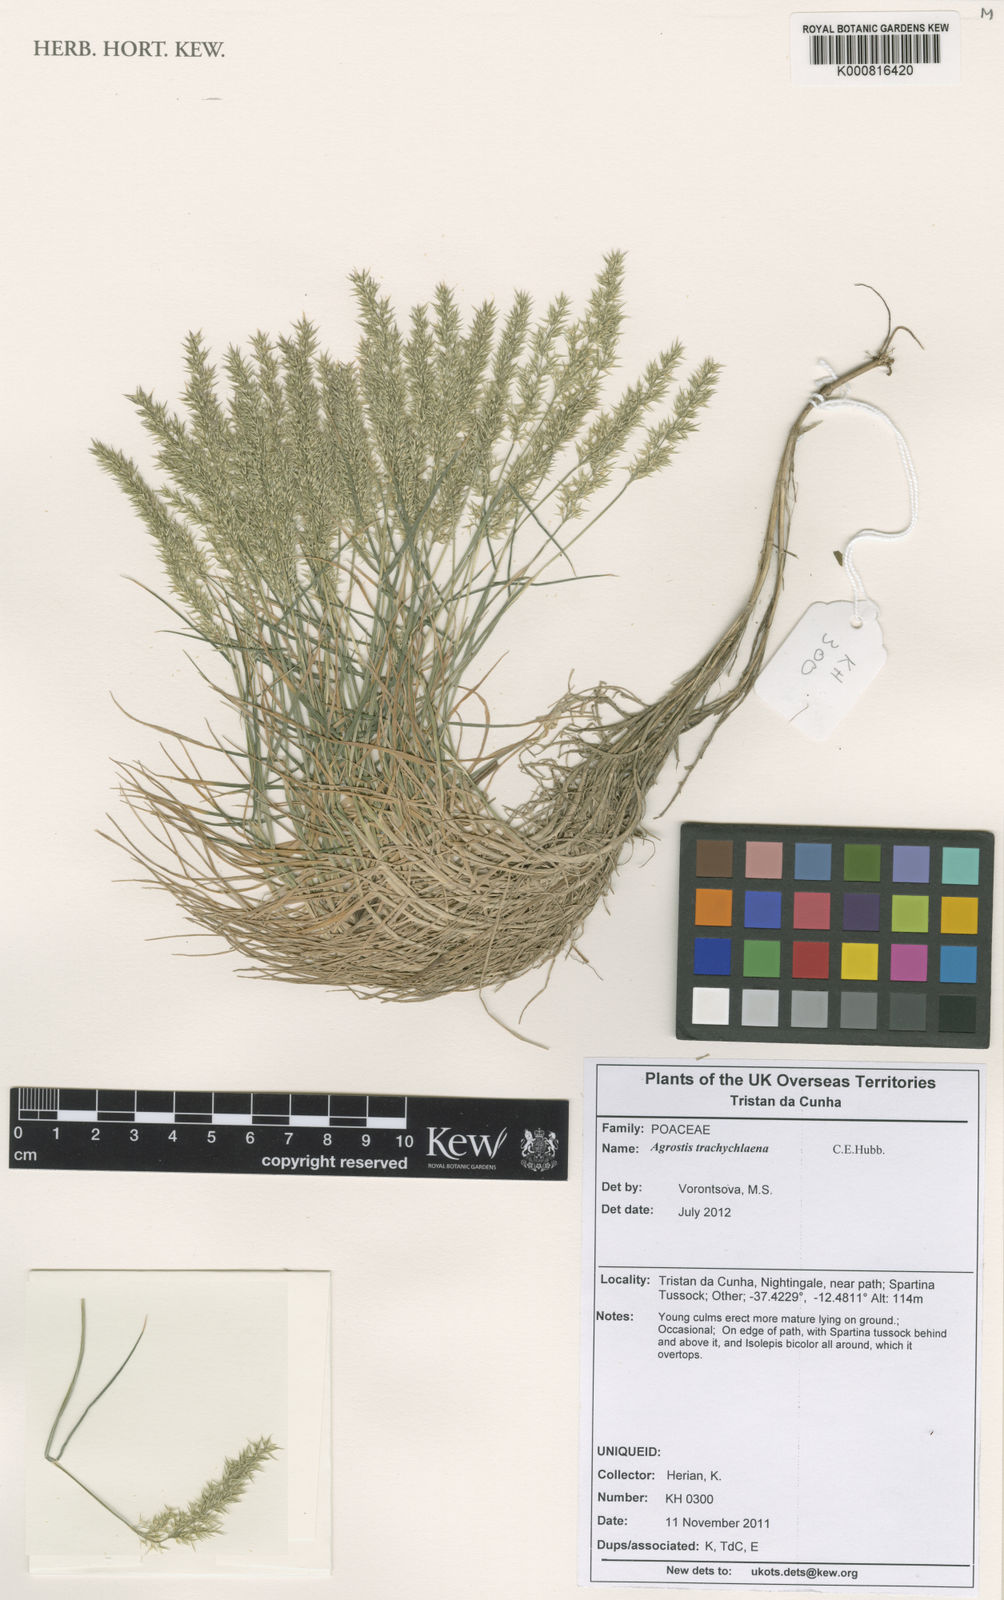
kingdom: Plantae
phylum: Tracheophyta
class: Liliopsida
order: Poales
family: Poaceae
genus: Agrostis
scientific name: Agrostis trachychlaena
